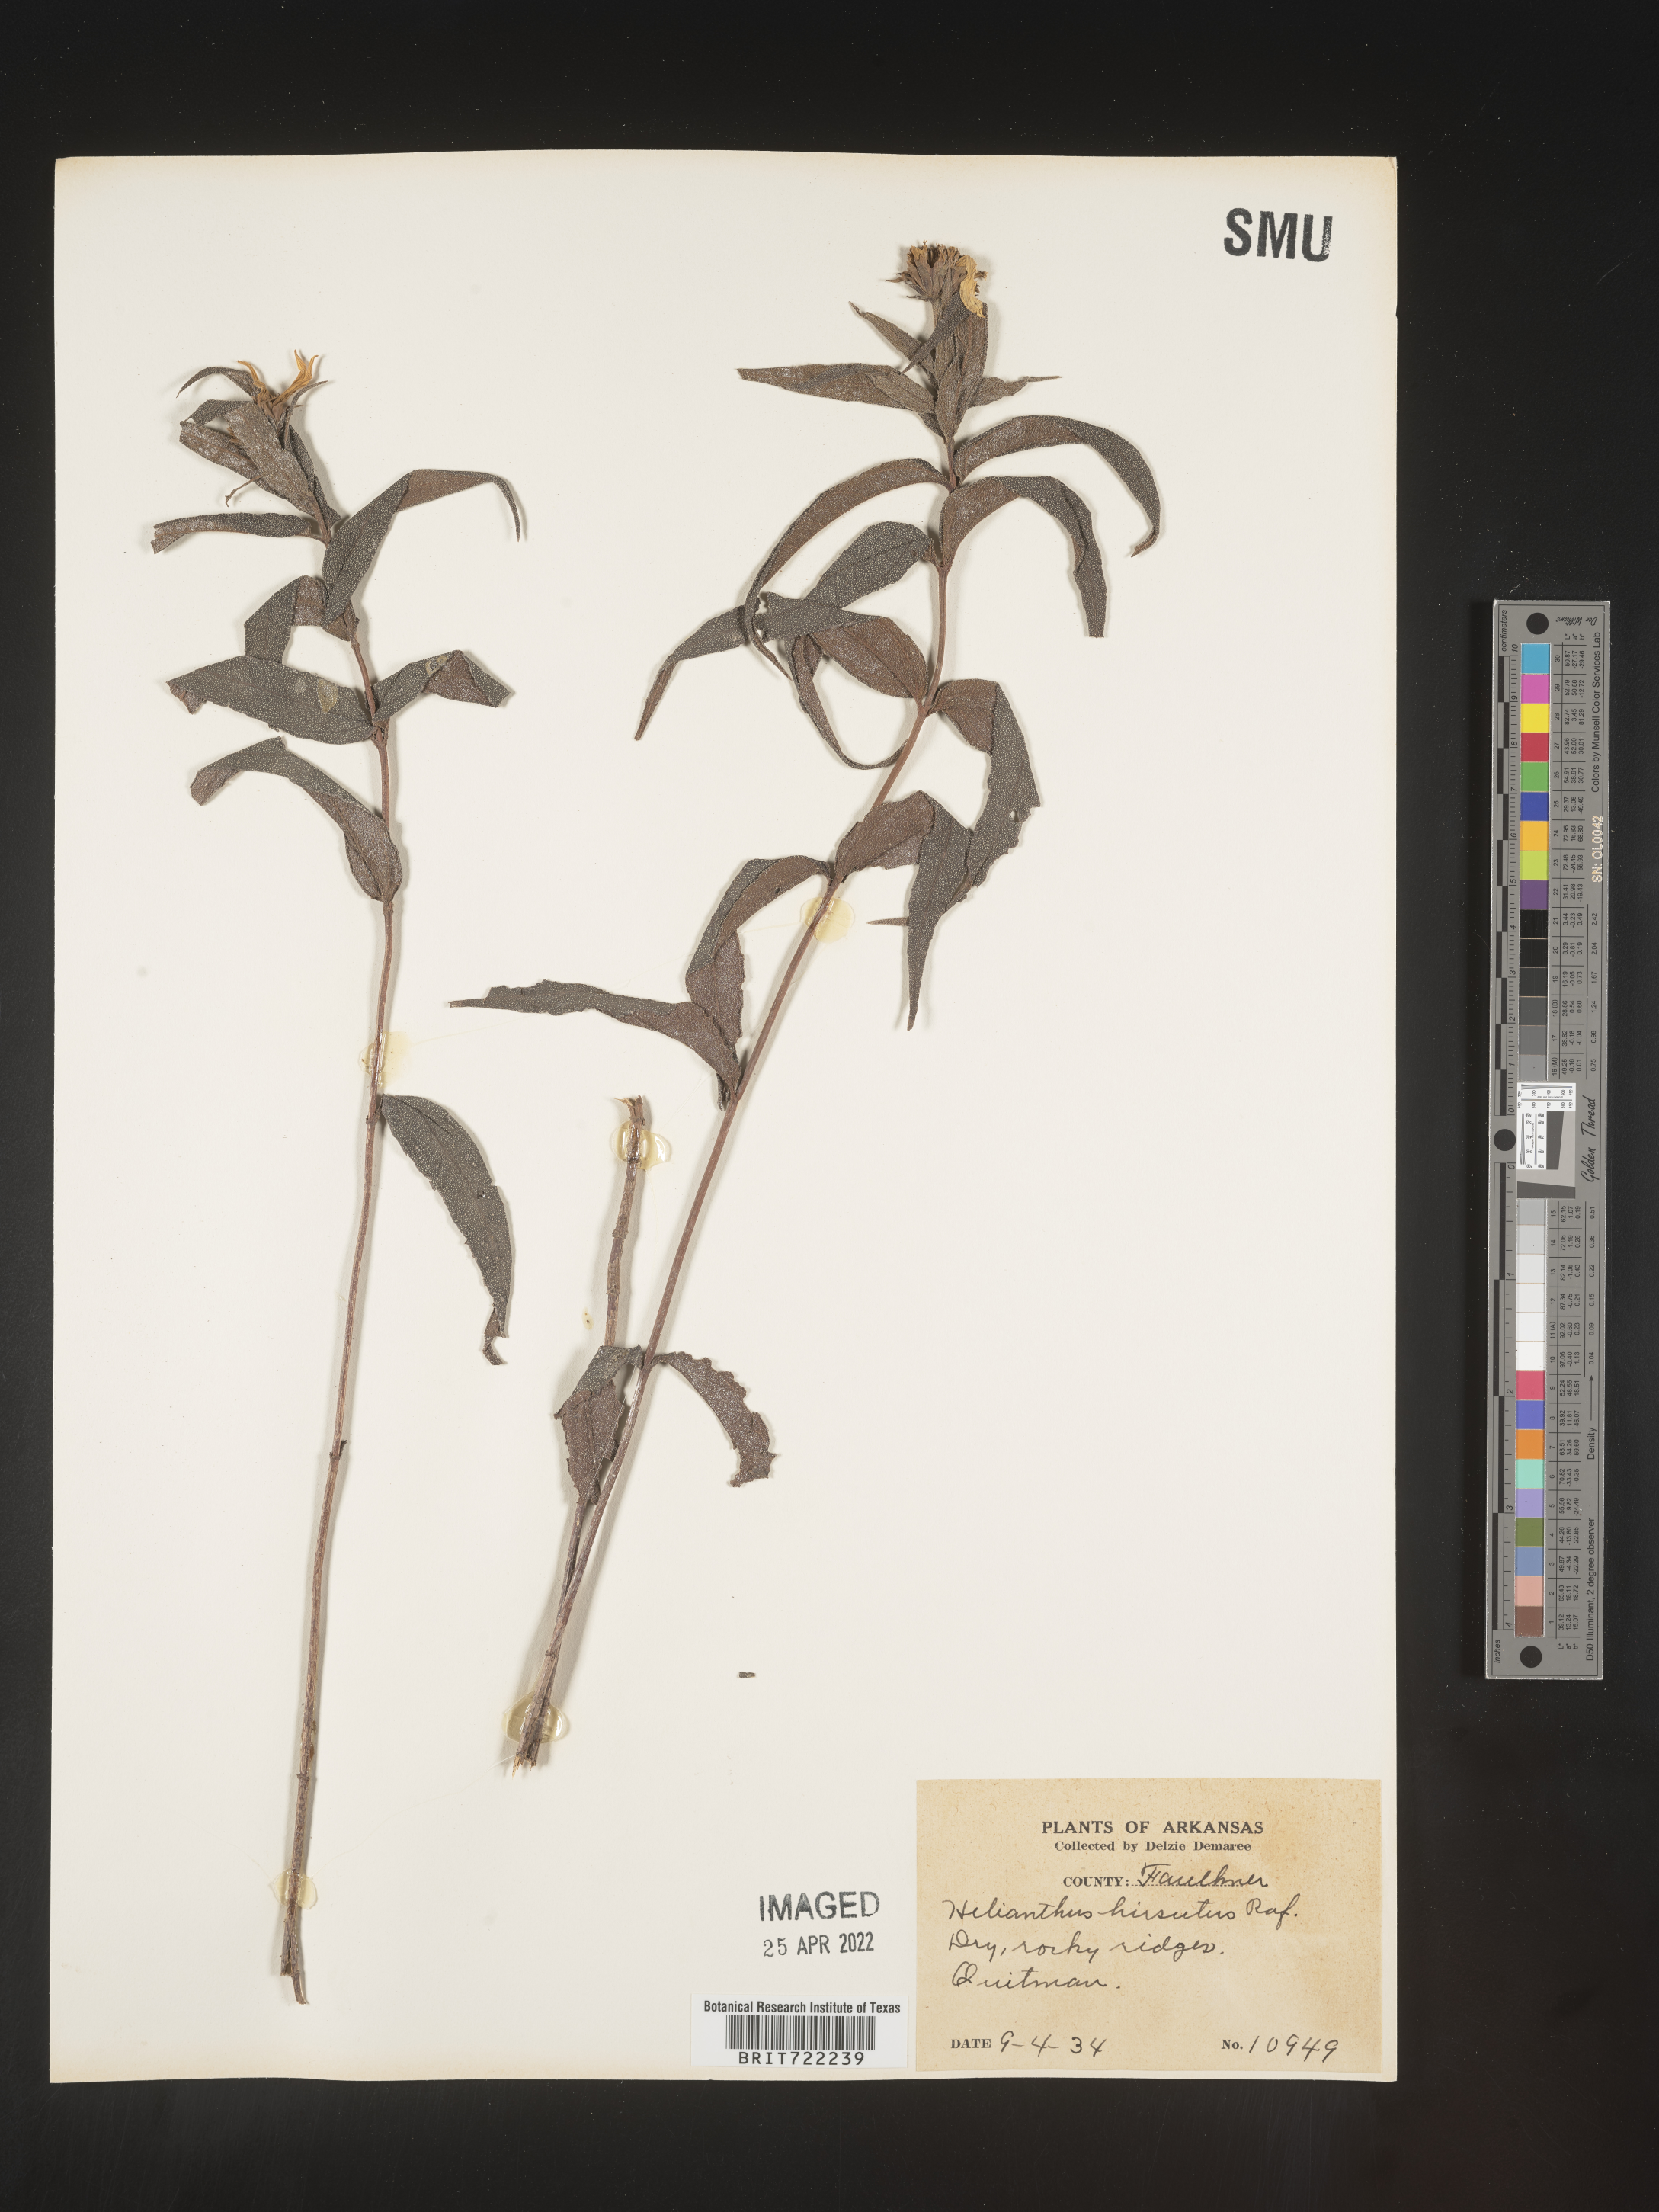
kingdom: Plantae
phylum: Tracheophyta
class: Magnoliopsida
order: Asterales
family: Asteraceae
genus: Helianthus
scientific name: Helianthus hirsutus
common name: Hairy sunflower
